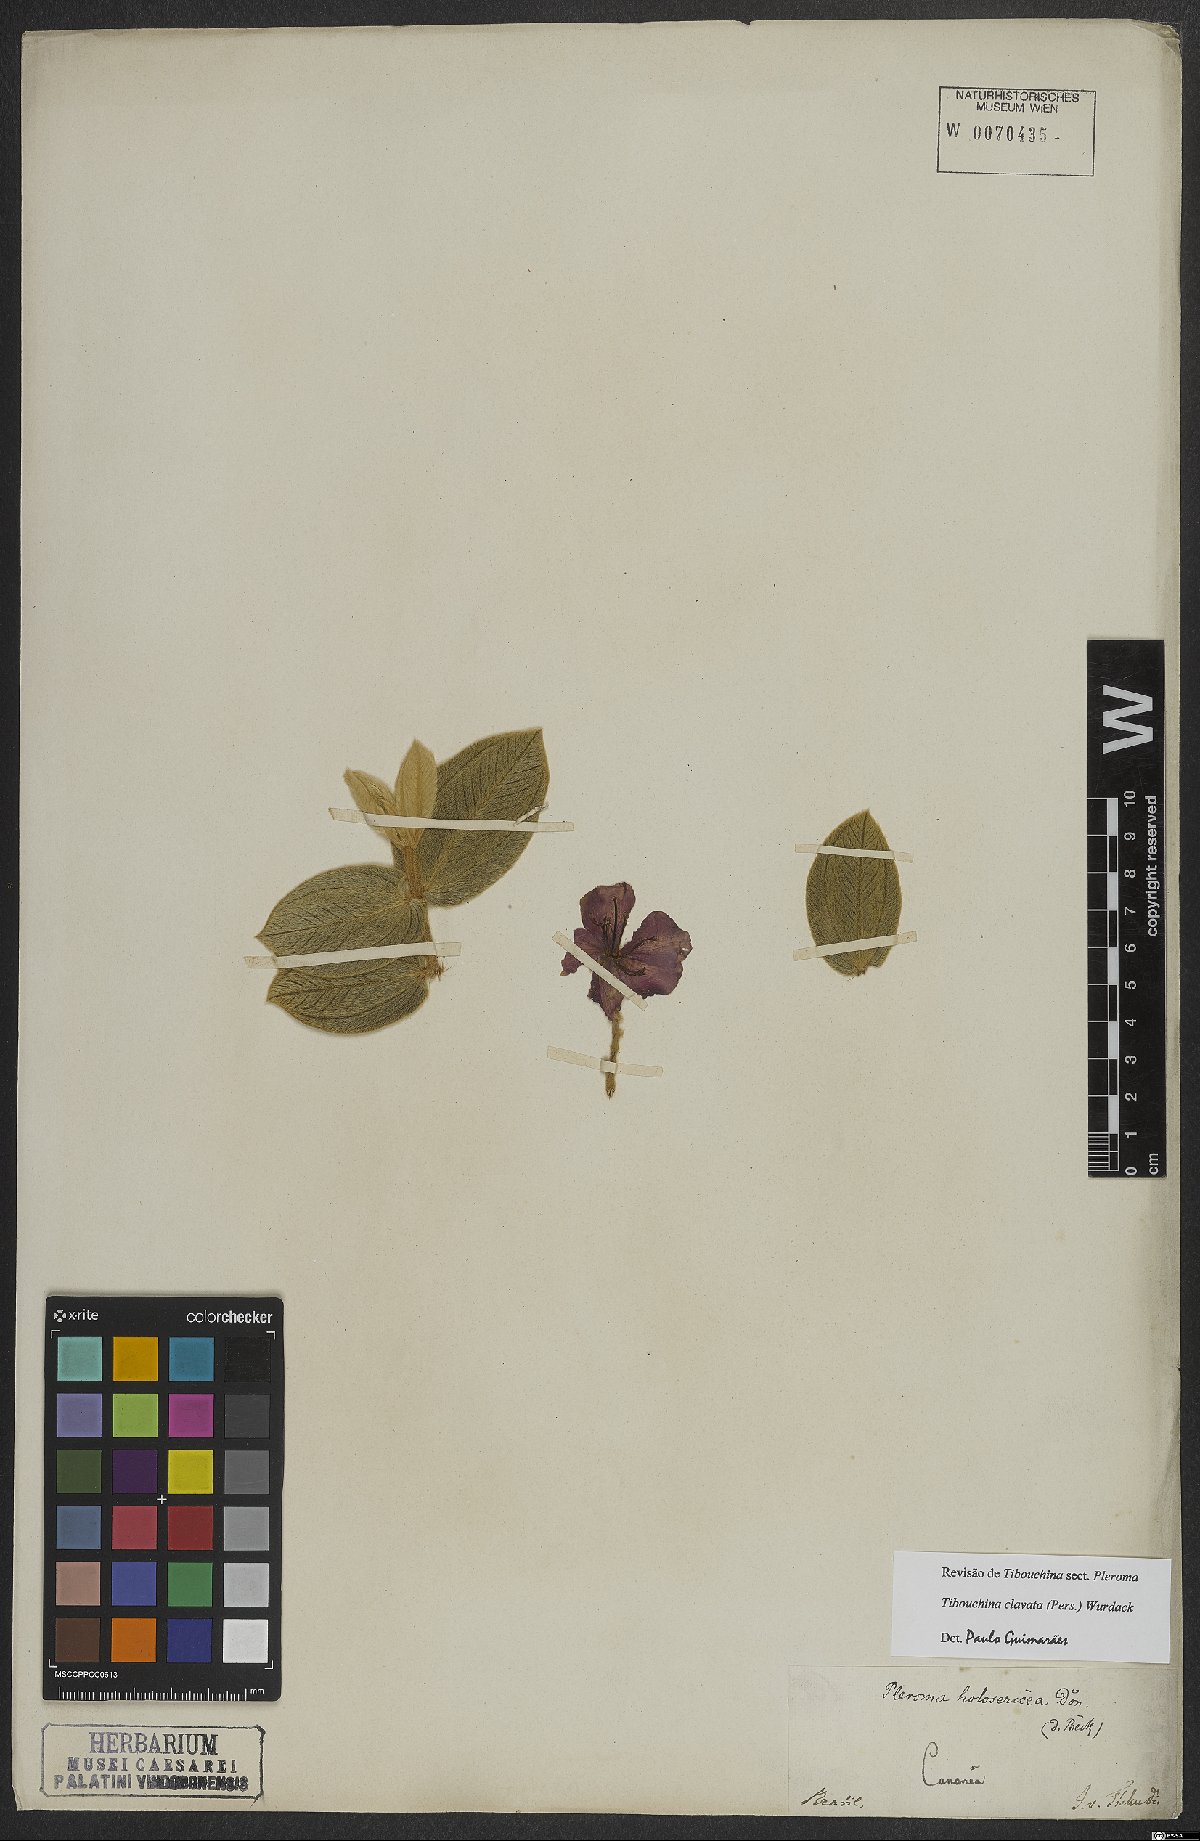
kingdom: Plantae
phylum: Tracheophyta
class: Magnoliopsida
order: Myrtales
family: Melastomataceae
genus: Pleroma
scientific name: Pleroma clavatum
